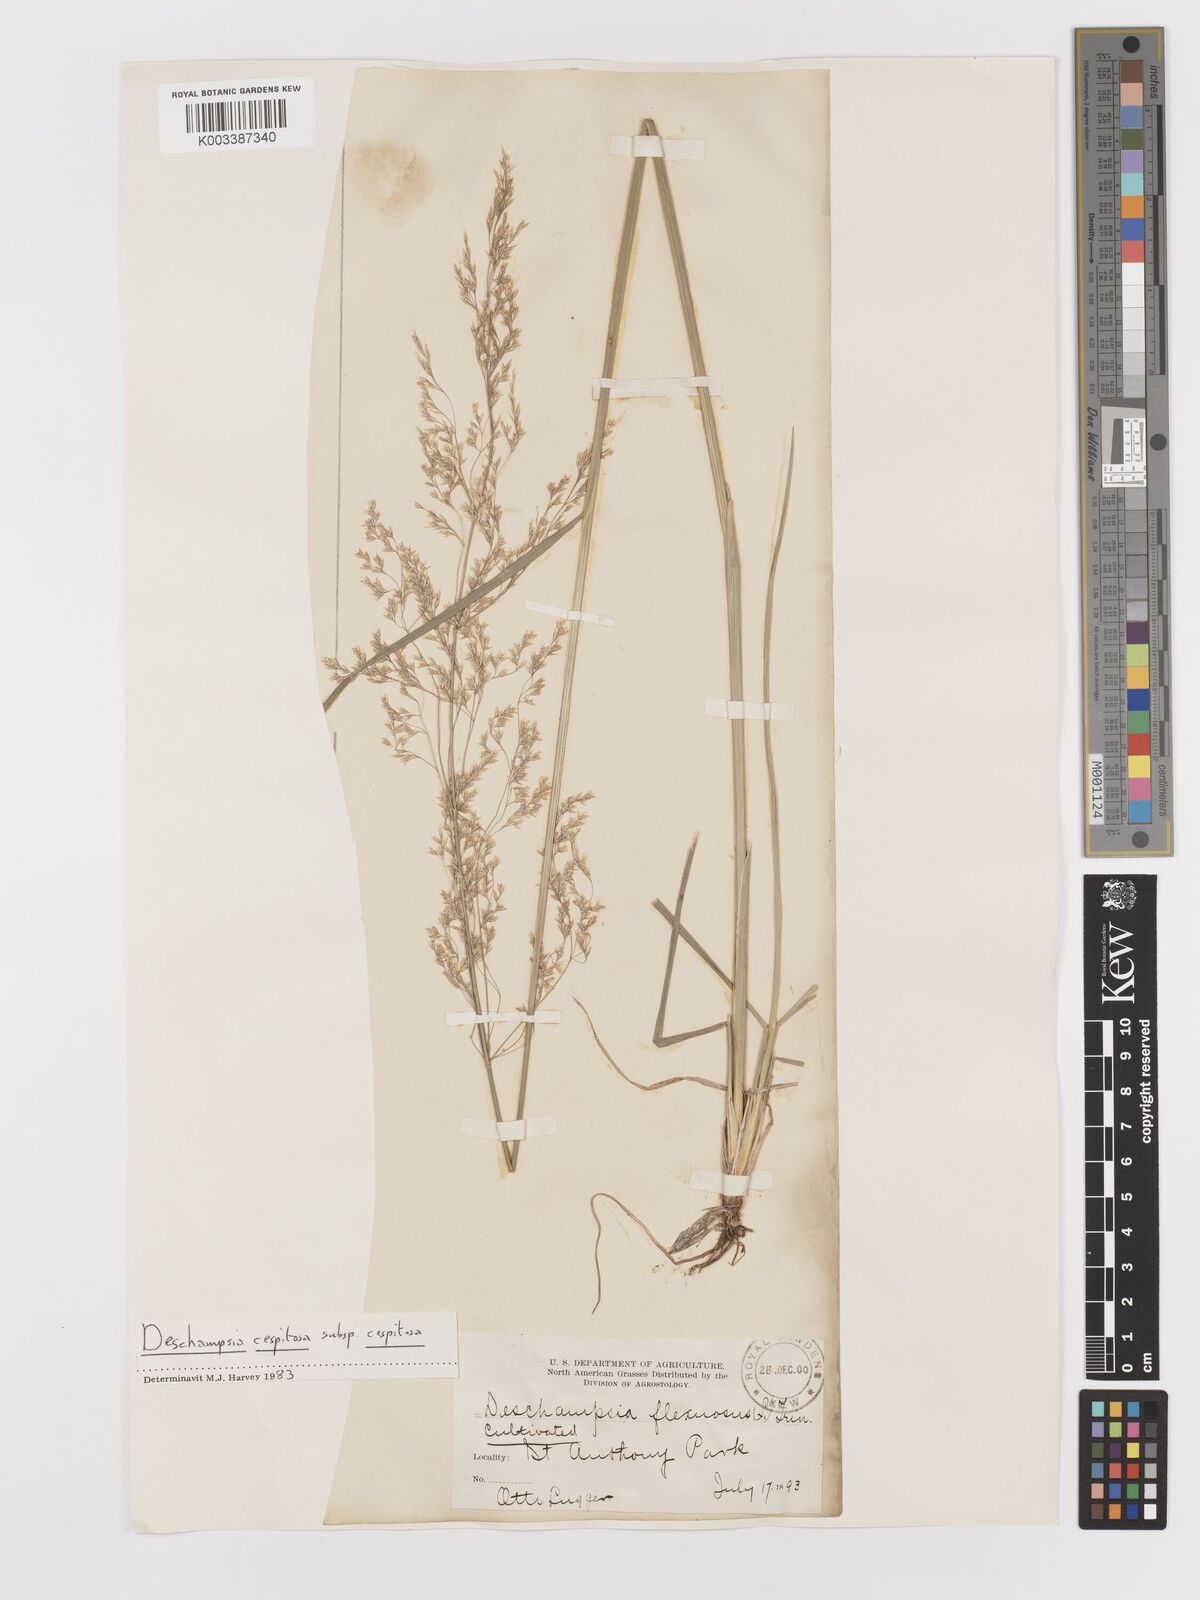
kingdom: Plantae
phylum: Tracheophyta
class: Liliopsida
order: Poales
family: Poaceae
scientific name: Poaceae
